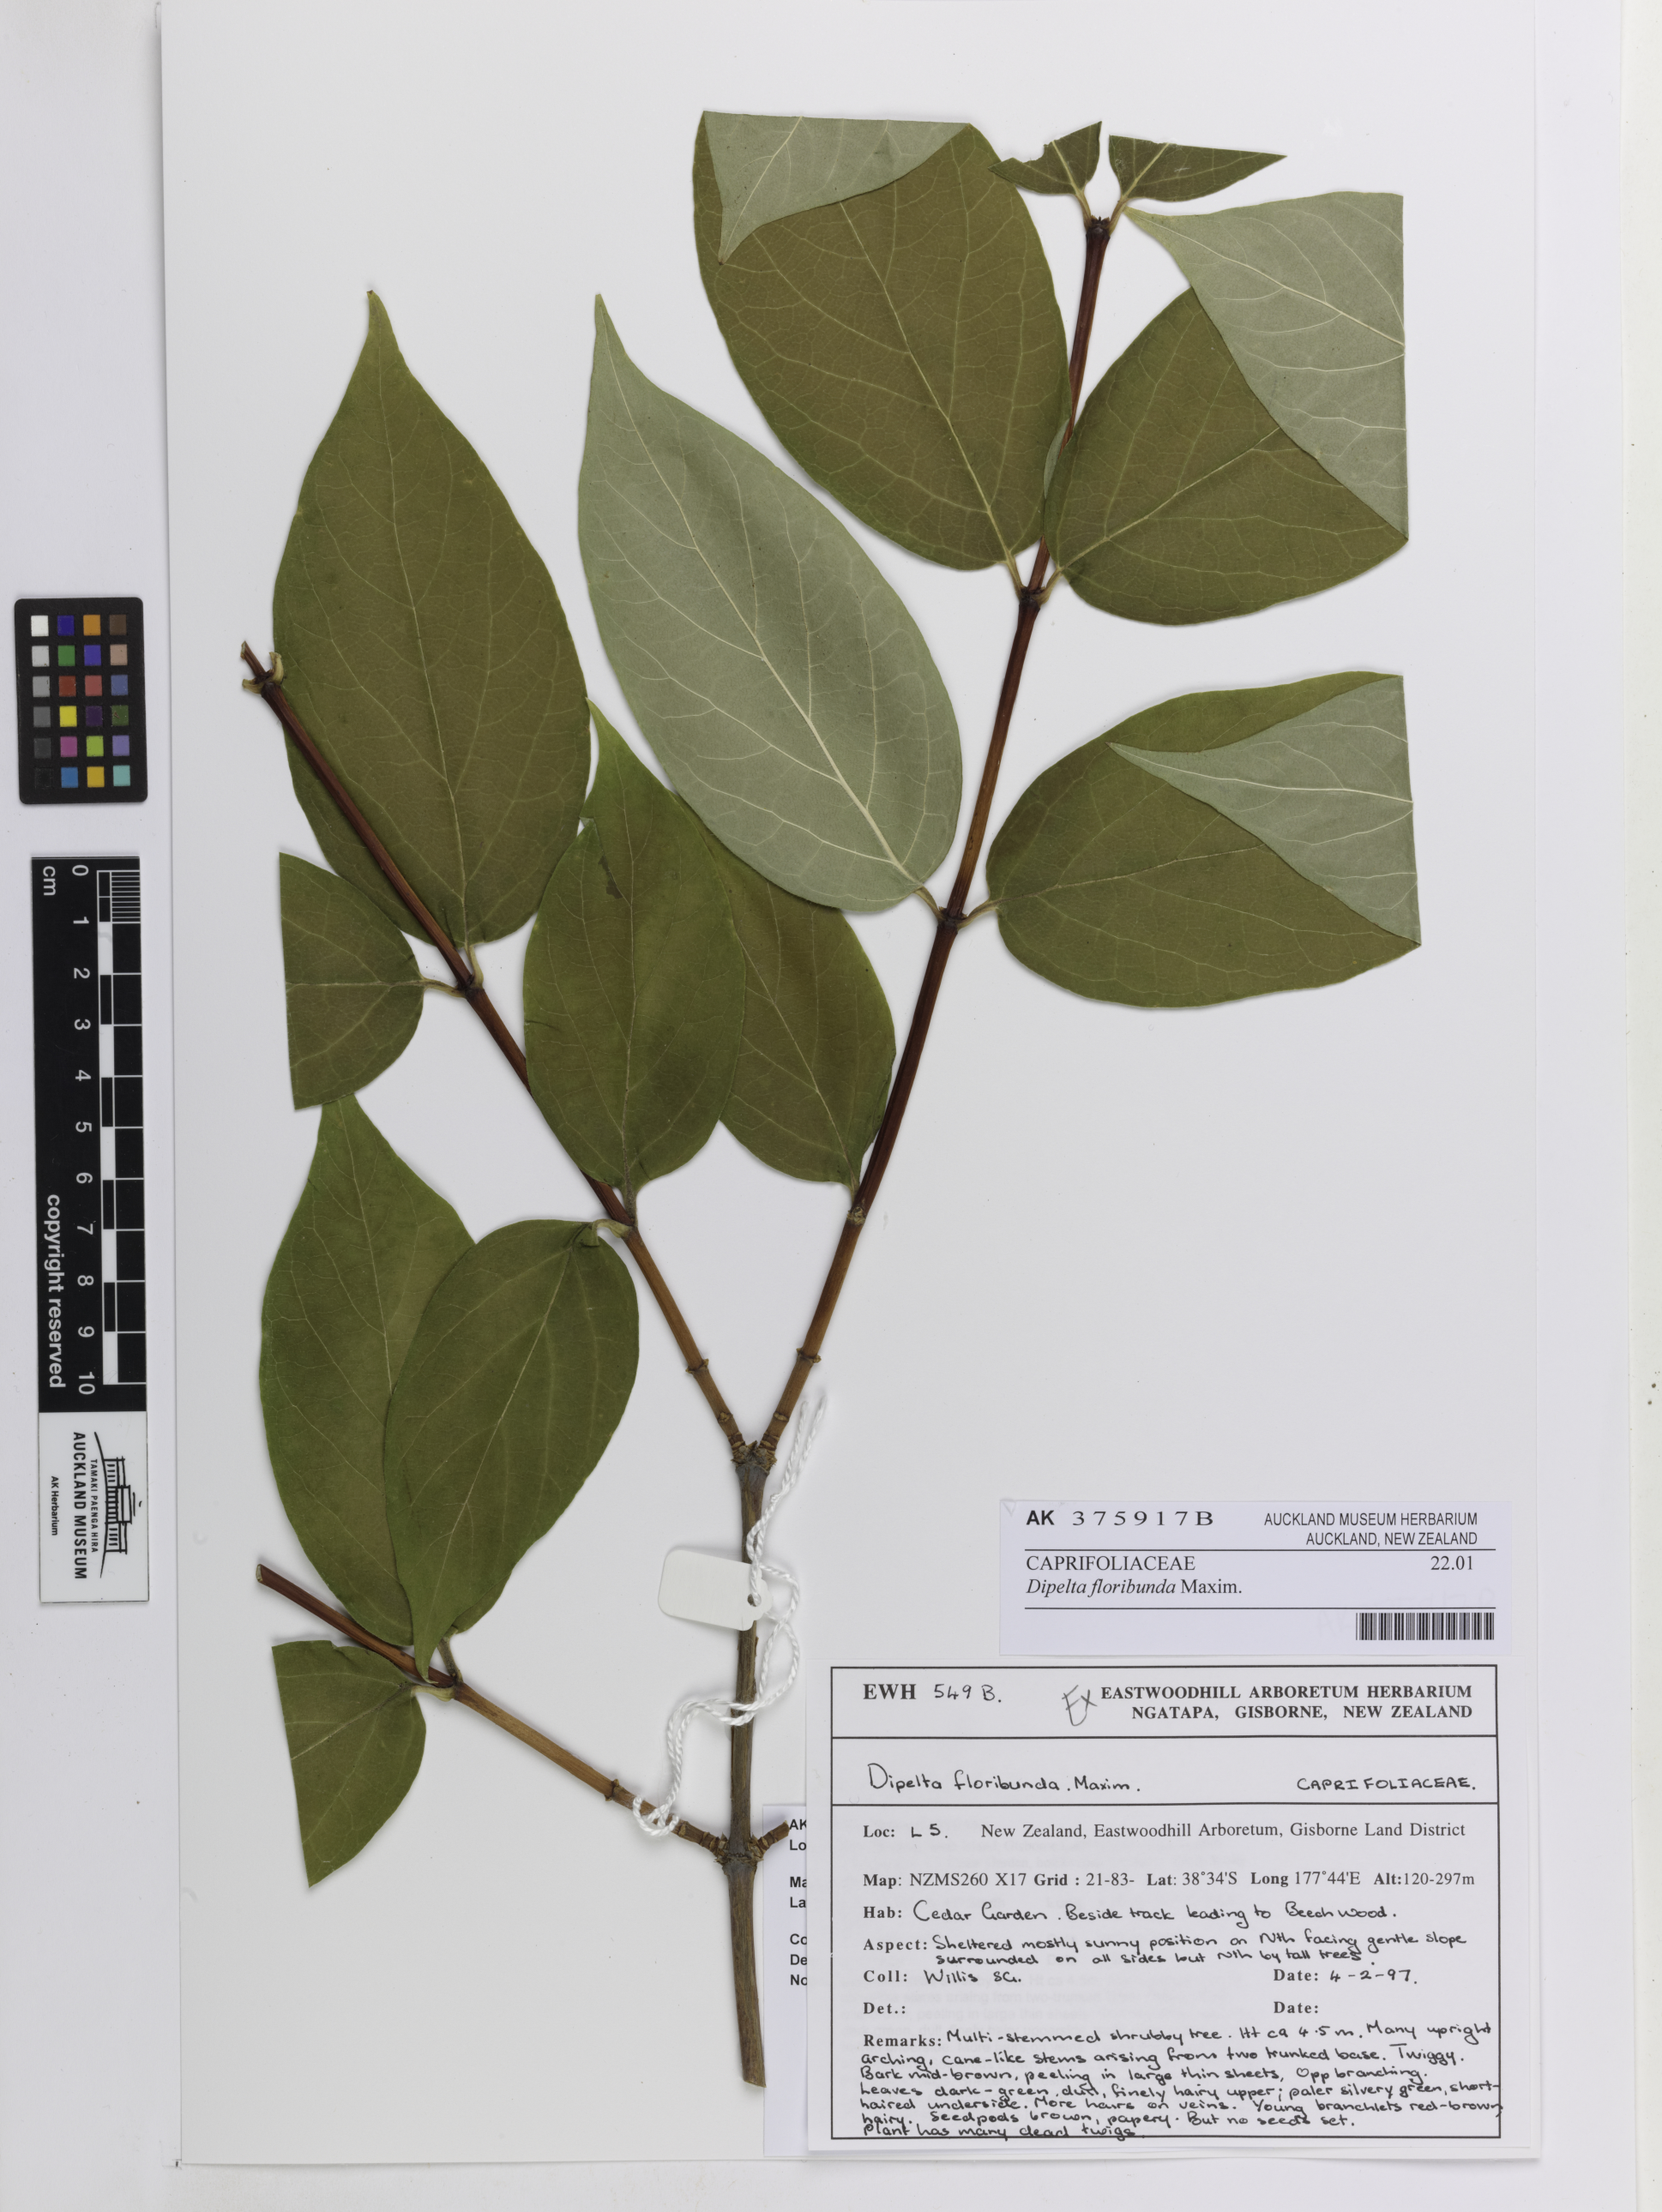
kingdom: Plantae
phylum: Tracheophyta
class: Magnoliopsida
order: Dipsacales
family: Caprifoliaceae
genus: Dipelta
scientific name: Dipelta floribunda
